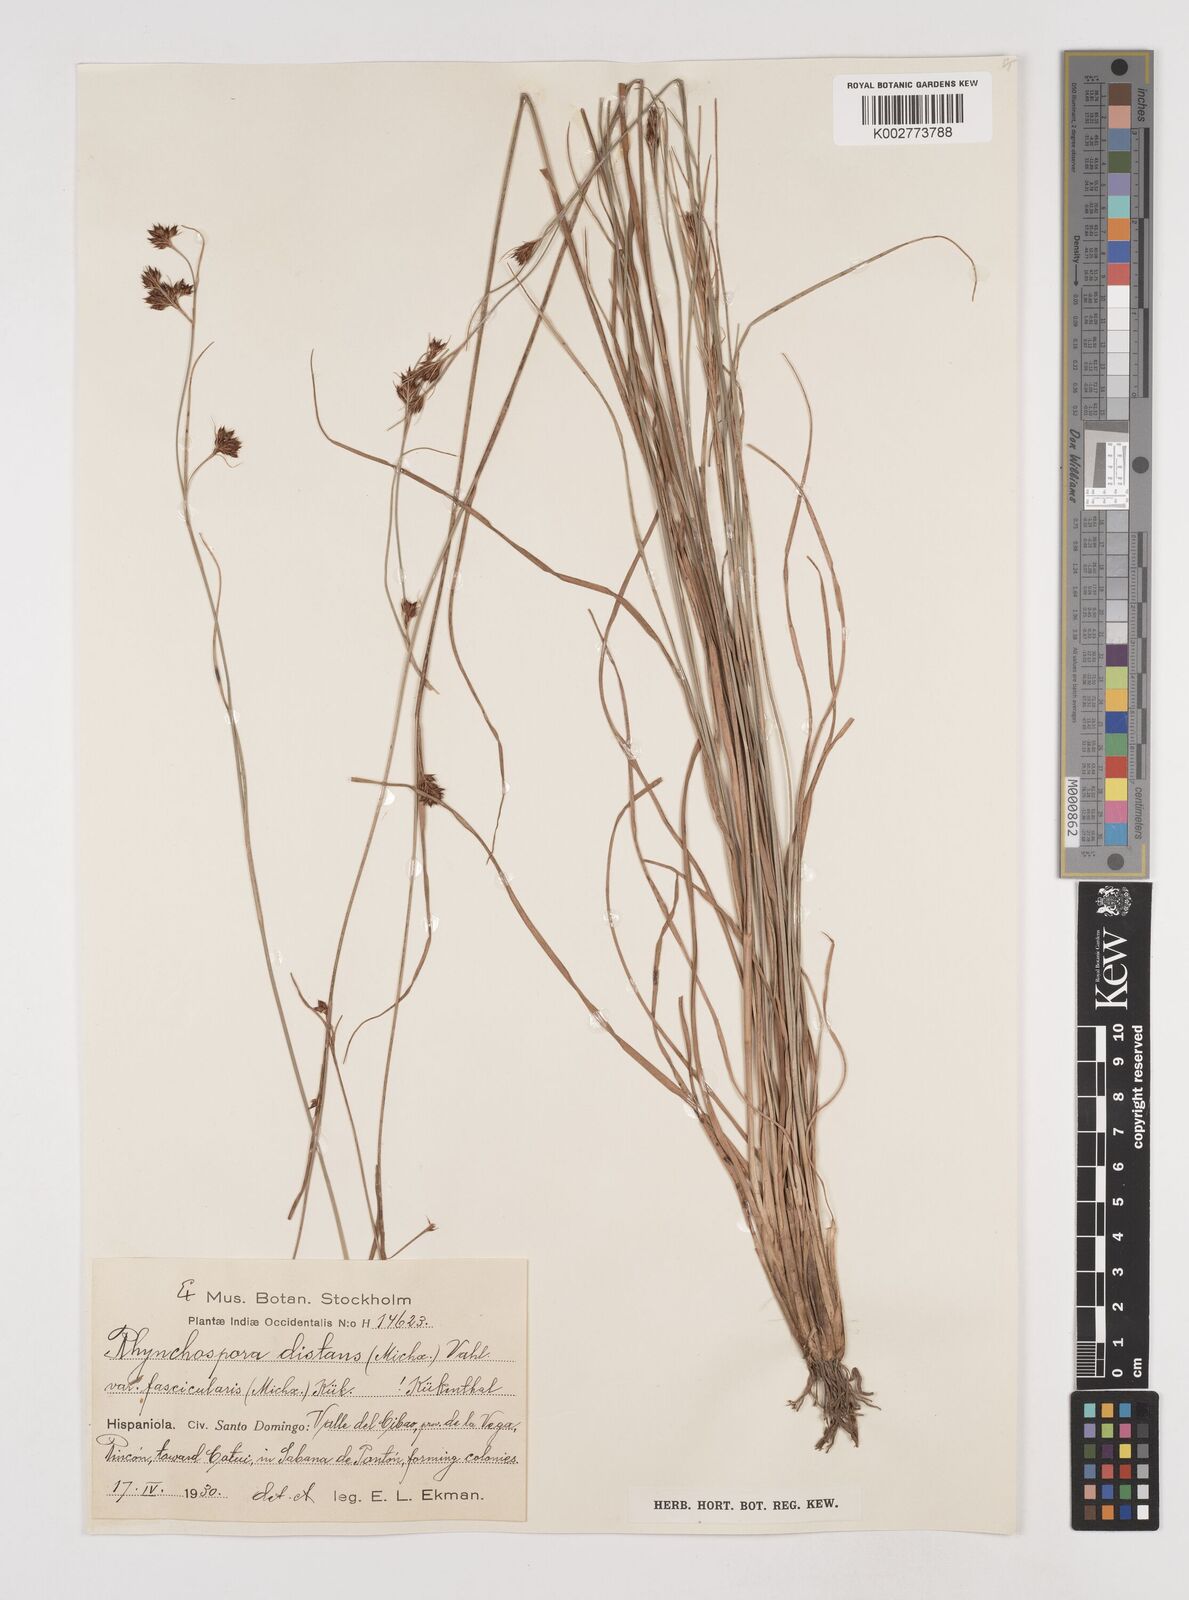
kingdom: Plantae
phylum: Tracheophyta
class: Liliopsida
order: Poales
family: Cyperaceae
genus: Rhynchospora
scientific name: Rhynchospora fascicularis
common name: Fascicled beak sedge
